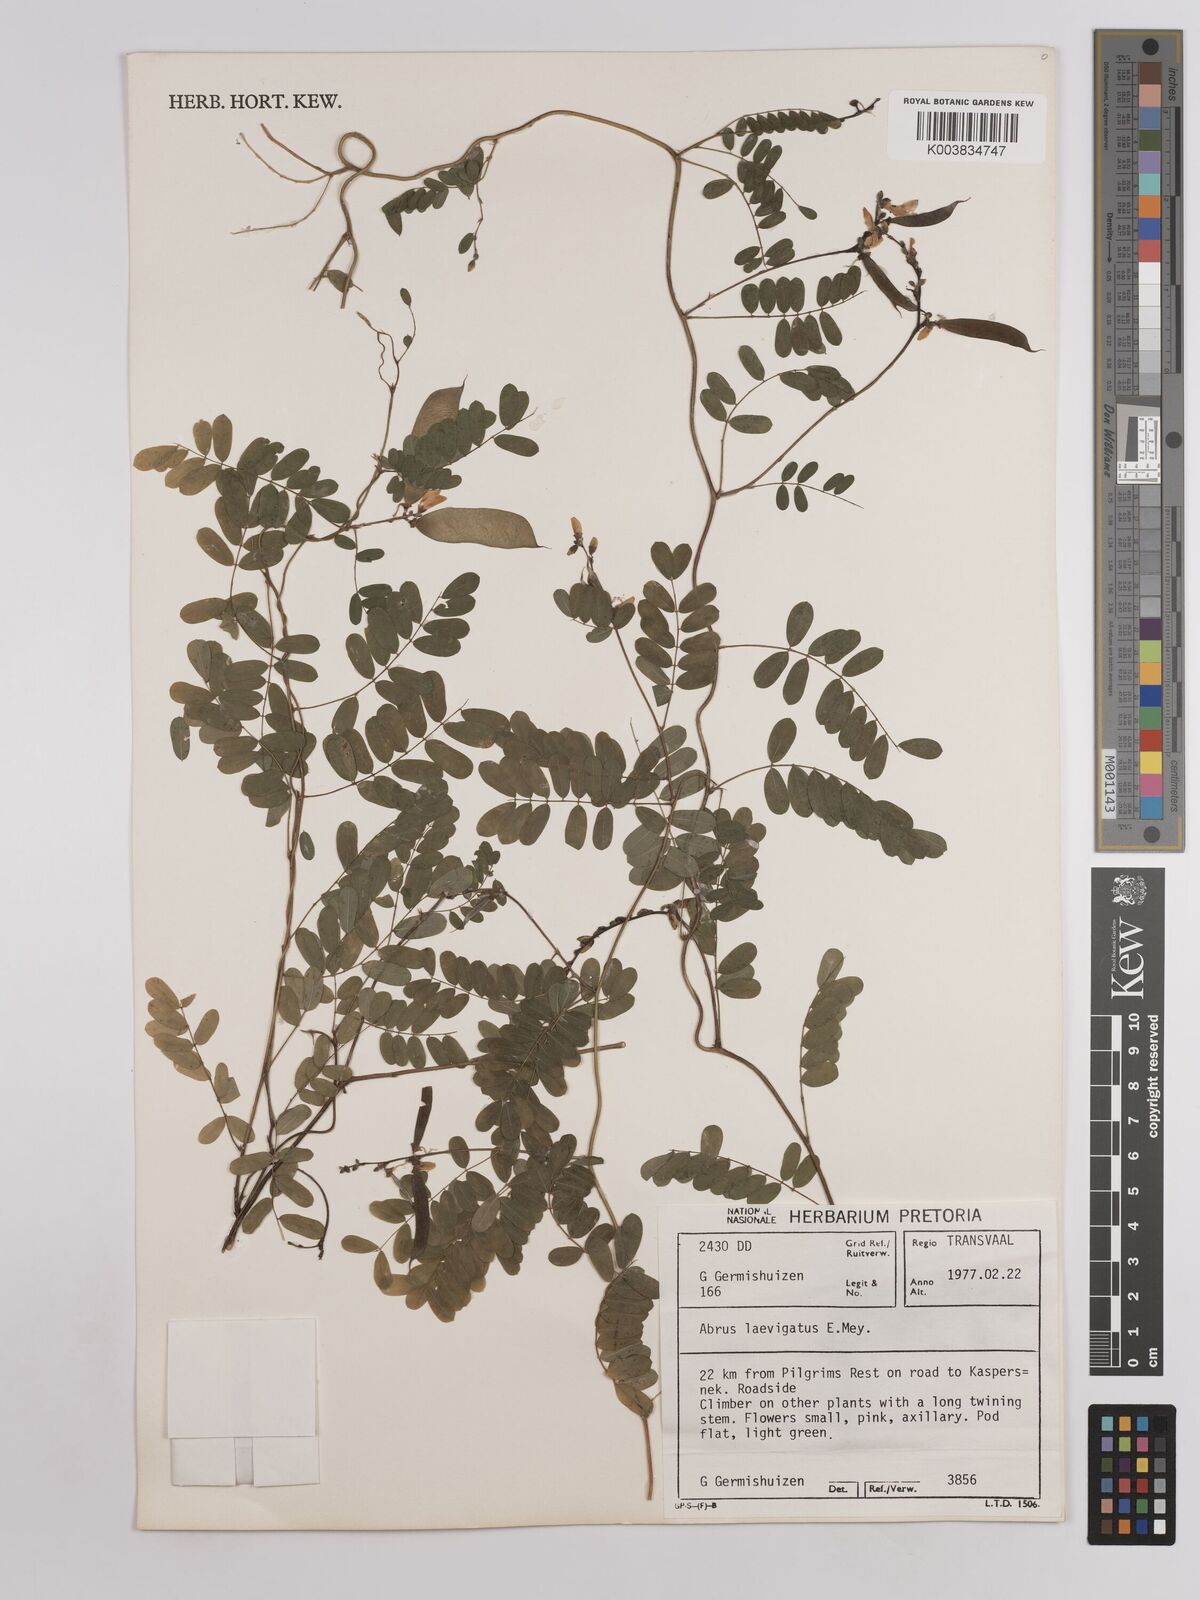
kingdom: Plantae
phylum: Tracheophyta
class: Magnoliopsida
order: Fabales
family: Fabaceae
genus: Abrus
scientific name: Abrus laevigatus
